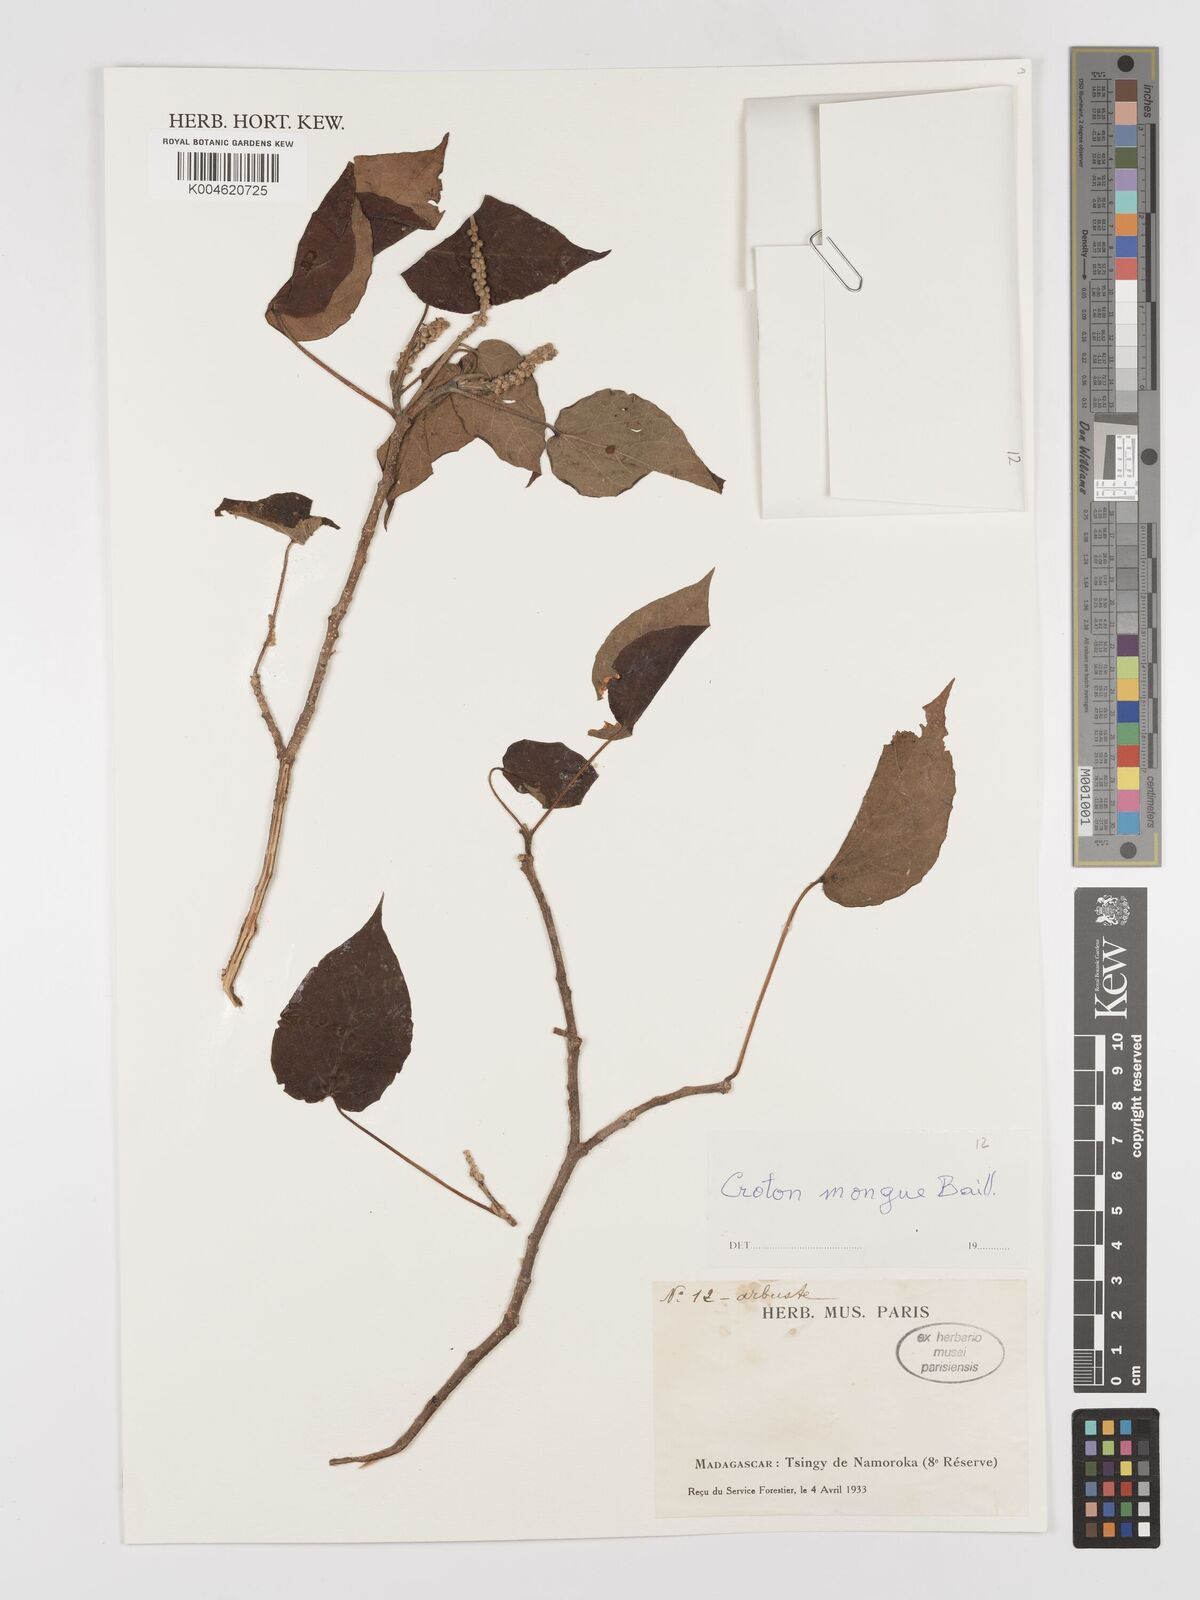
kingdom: Plantae
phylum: Tracheophyta
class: Magnoliopsida
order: Malpighiales
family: Euphorbiaceae
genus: Croton
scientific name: Croton
